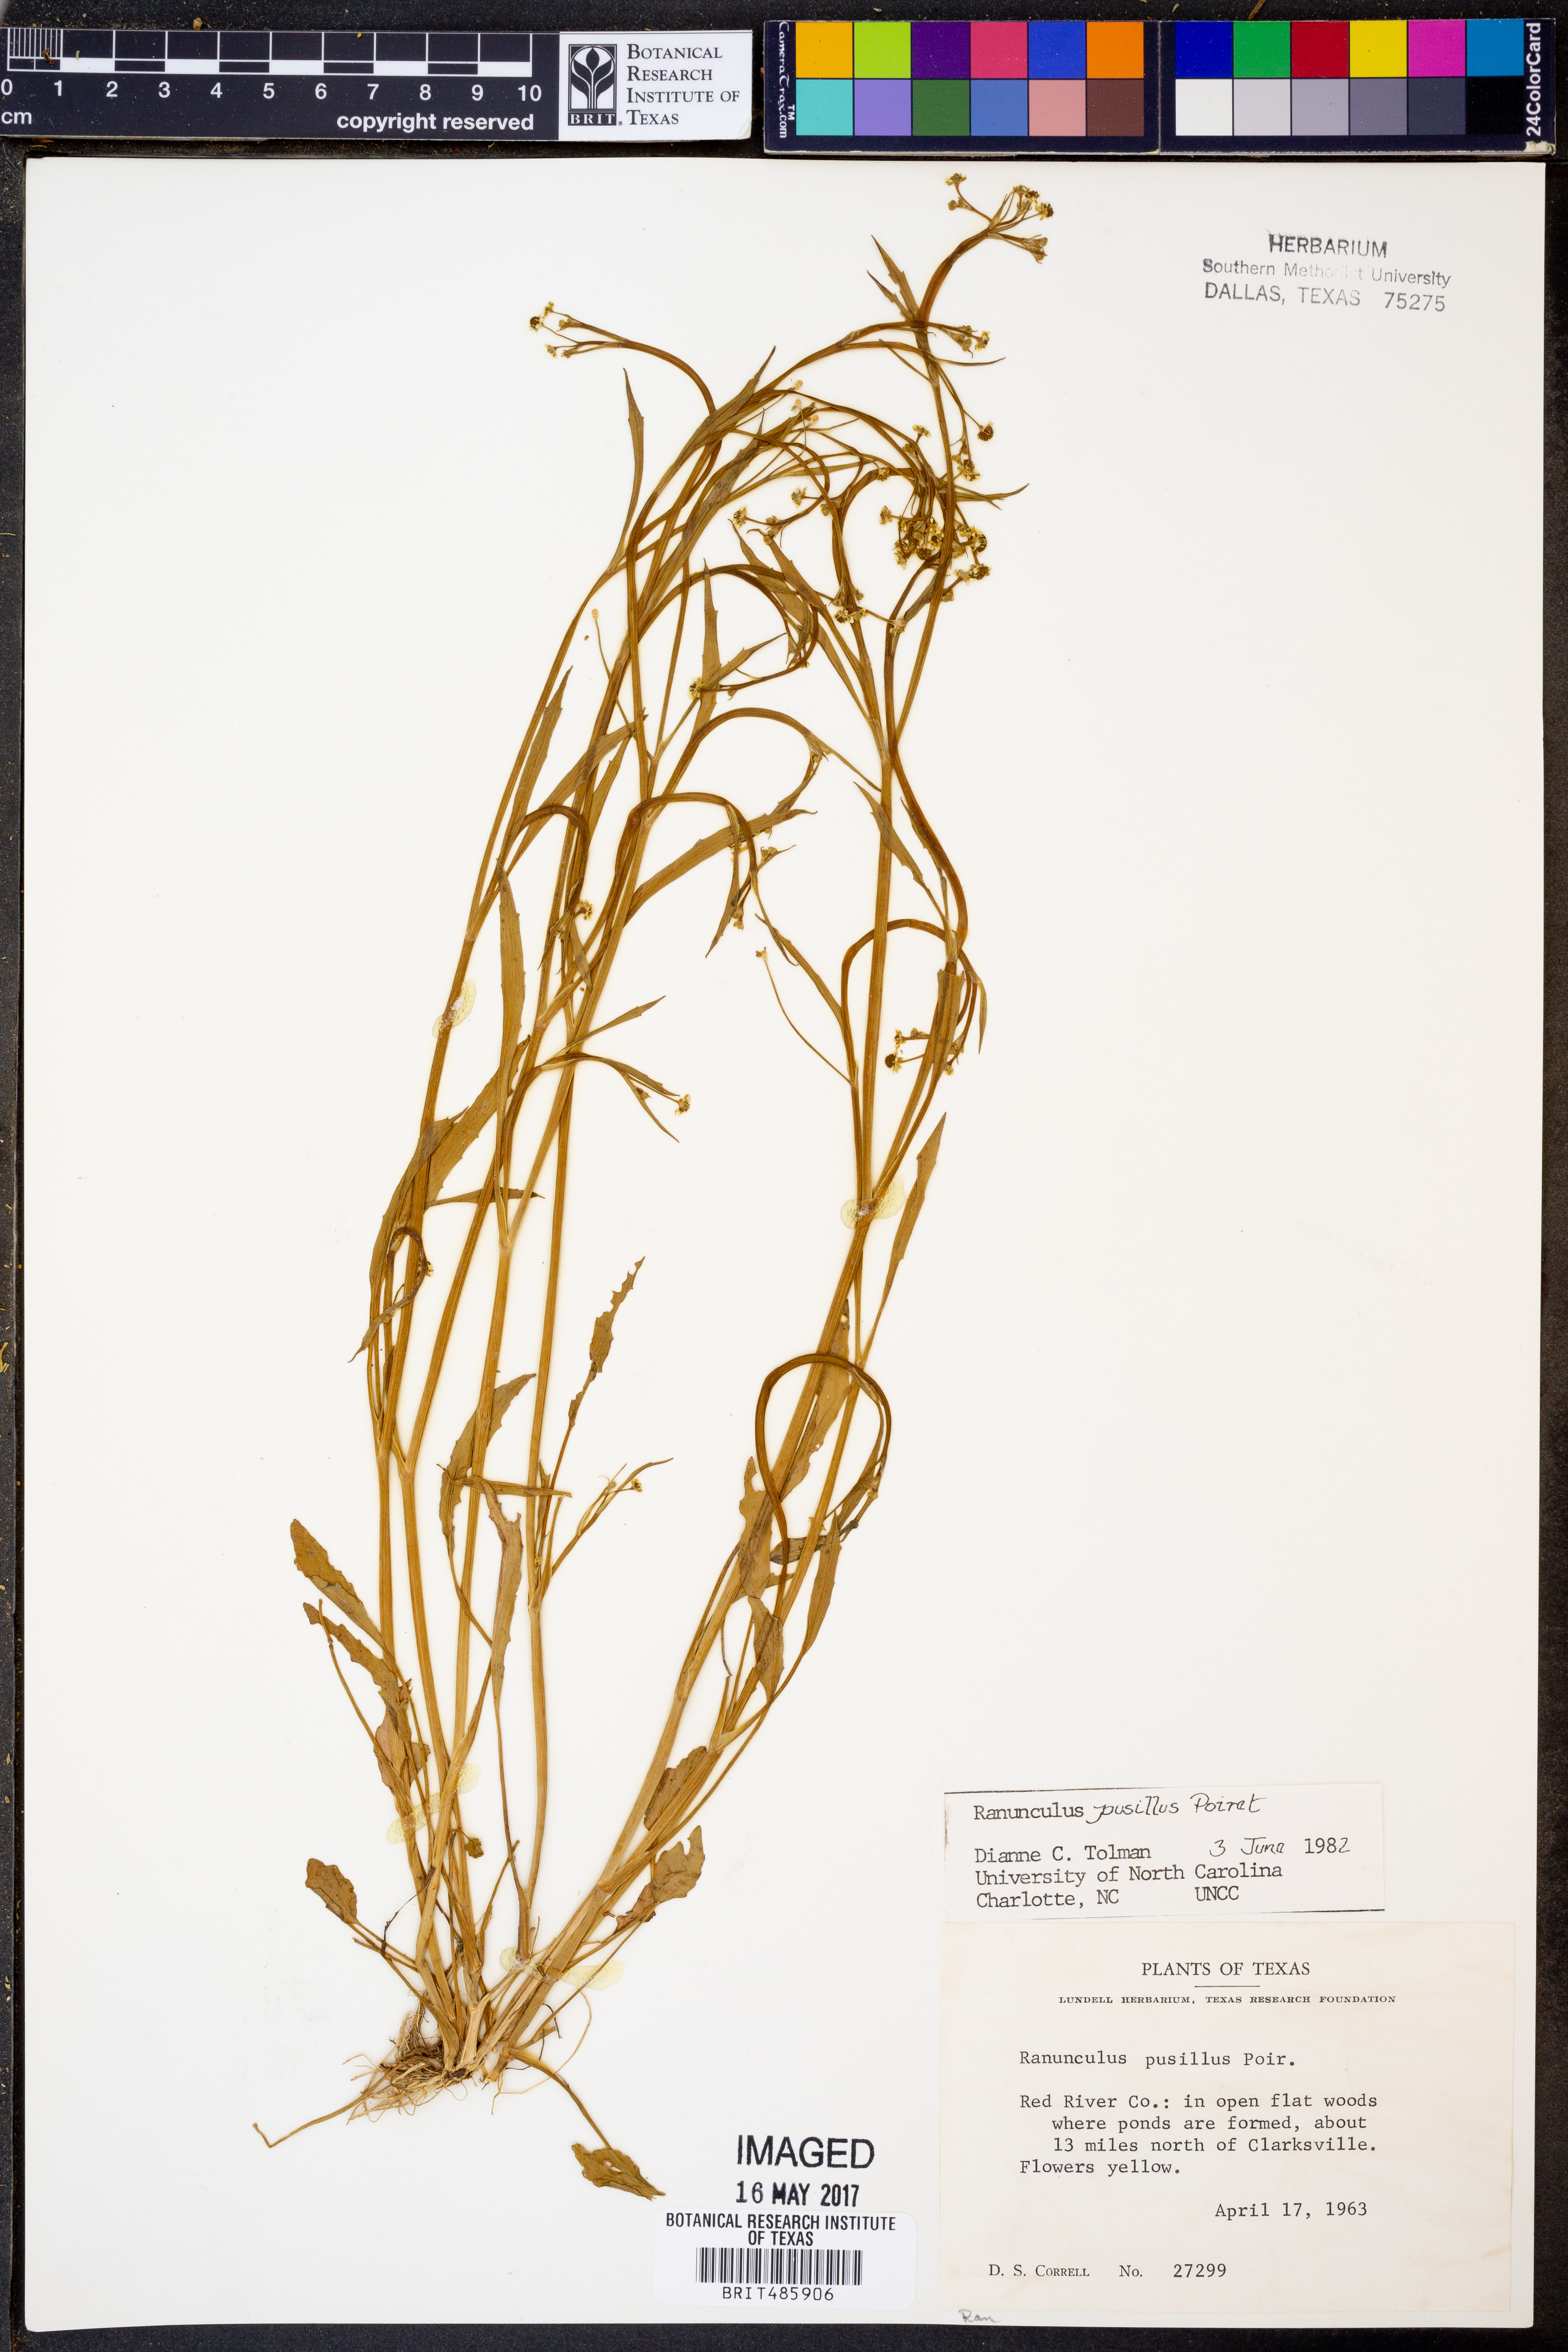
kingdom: Plantae
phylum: Tracheophyta
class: Magnoliopsida
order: Ranunculales
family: Ranunculaceae
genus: Ranunculus
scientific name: Ranunculus pusillus
